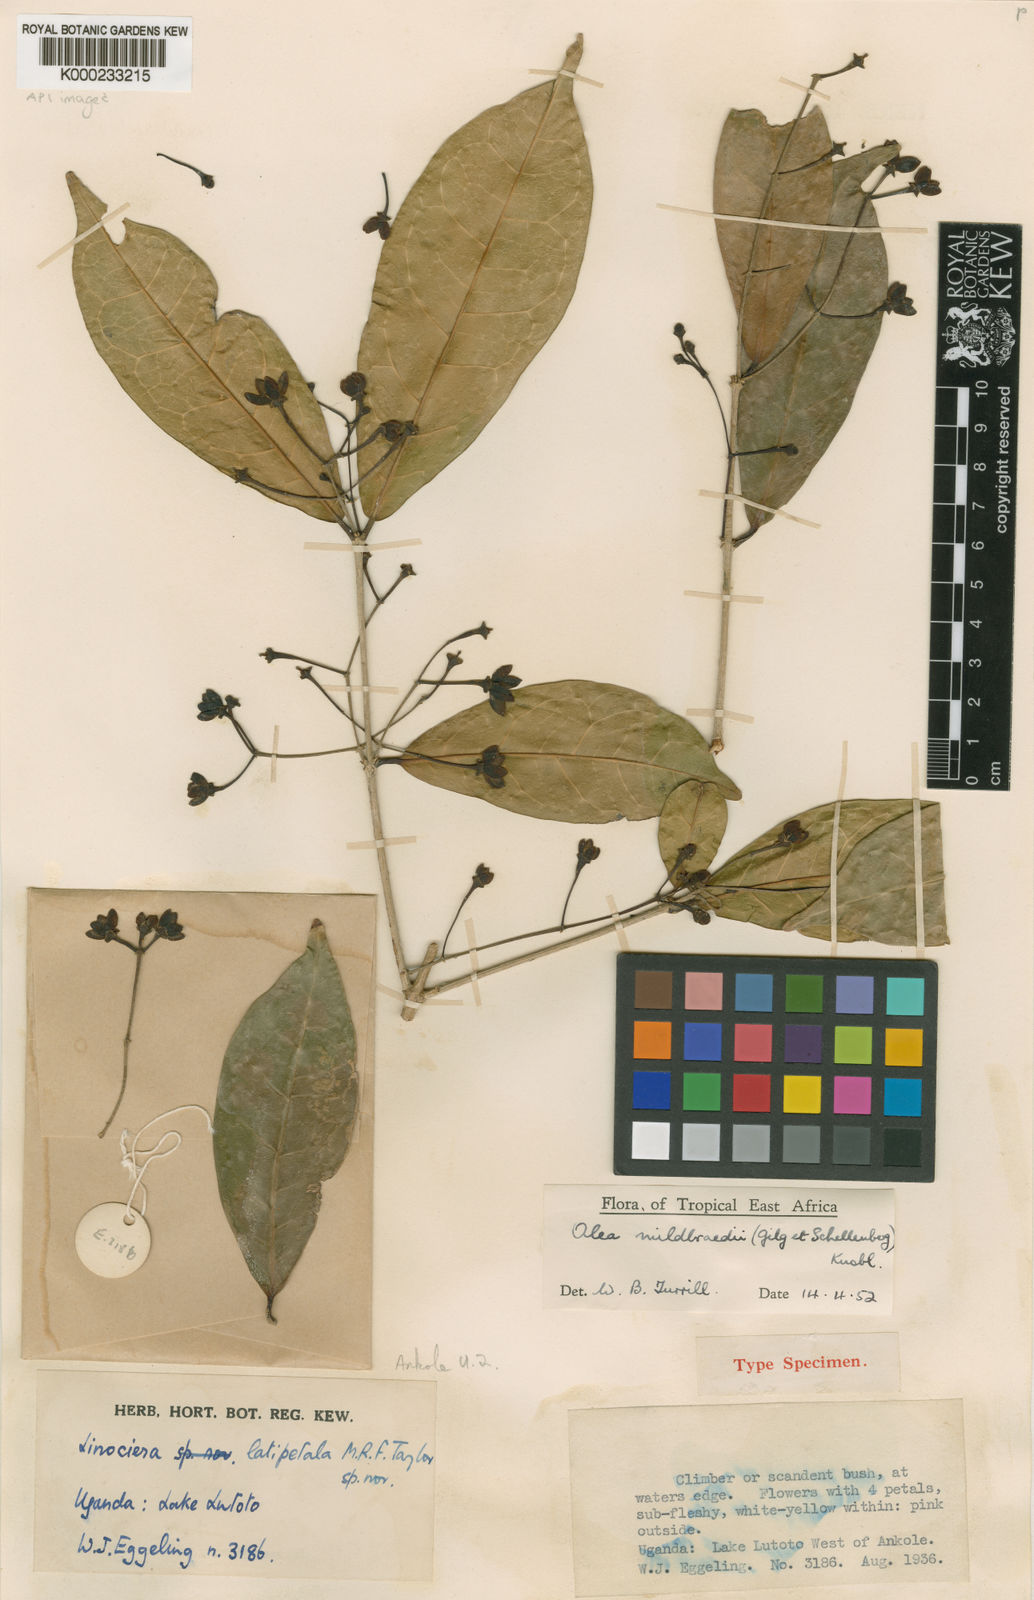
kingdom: Plantae
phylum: Tracheophyta
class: Magnoliopsida
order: Lamiales
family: Oleaceae
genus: Noronhia
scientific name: Noronhia mildbraedii
